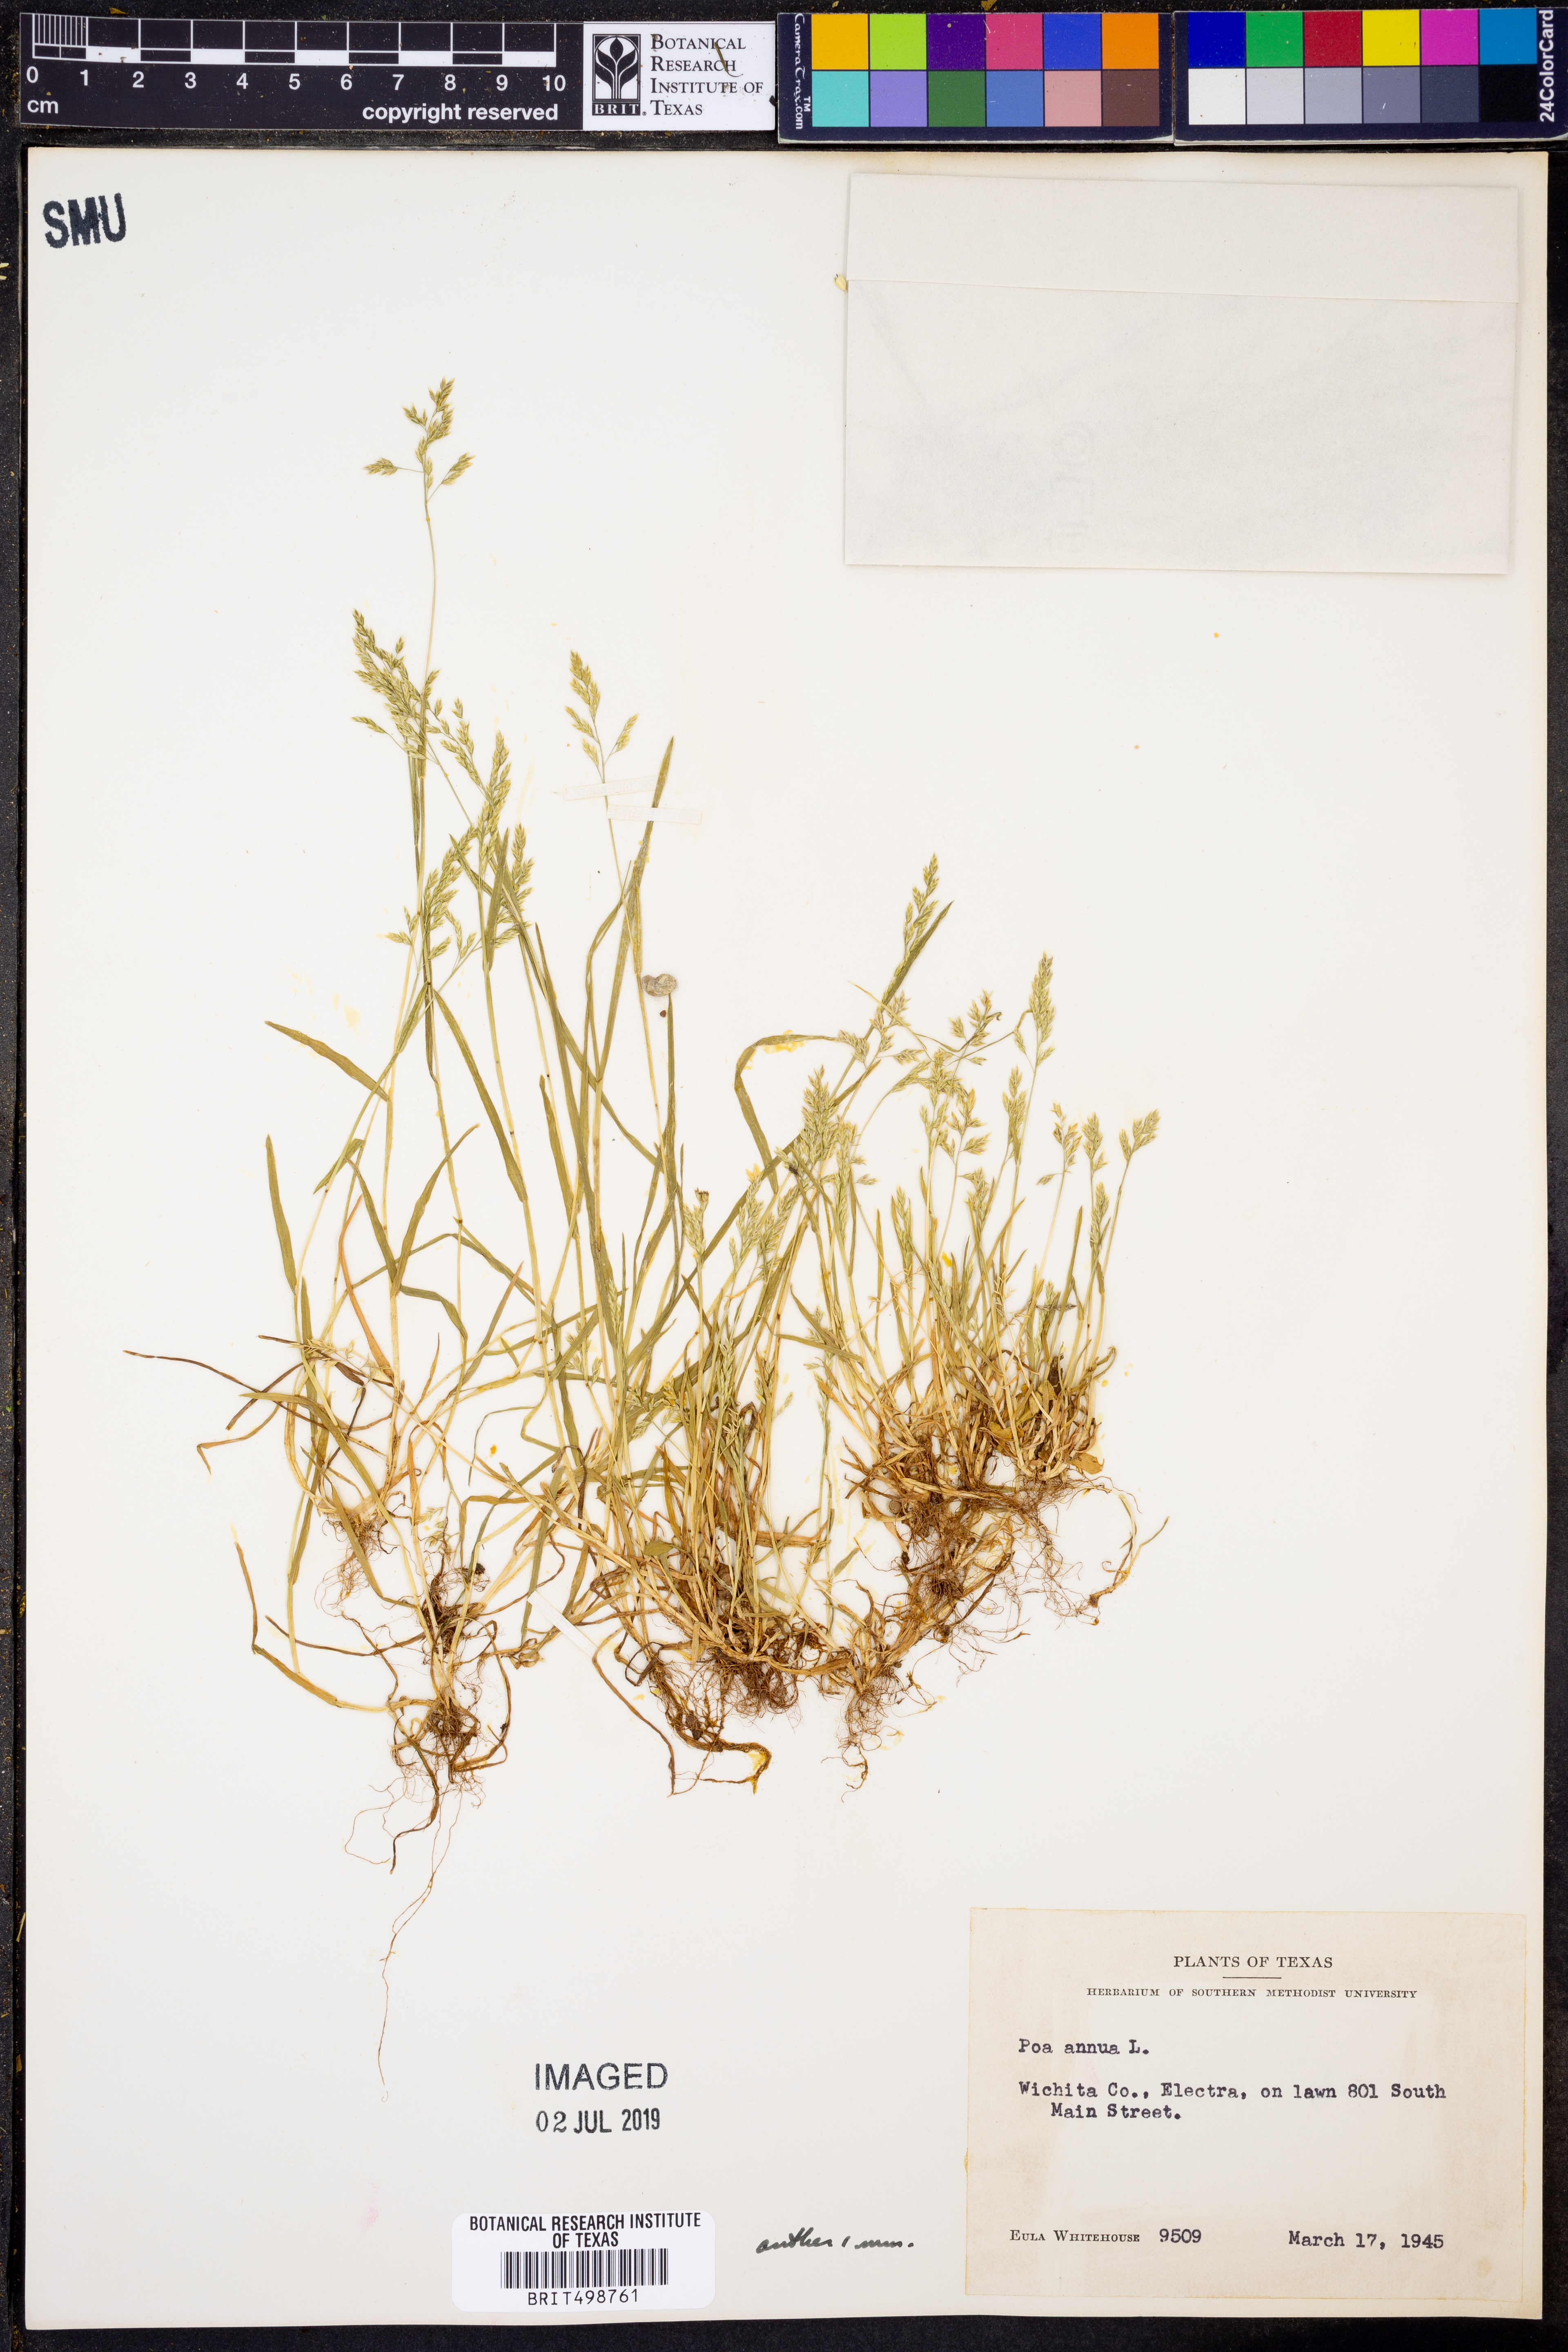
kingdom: Plantae
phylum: Tracheophyta
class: Liliopsida
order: Poales
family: Poaceae
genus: Poa
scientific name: Poa annua
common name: Annual bluegrass
